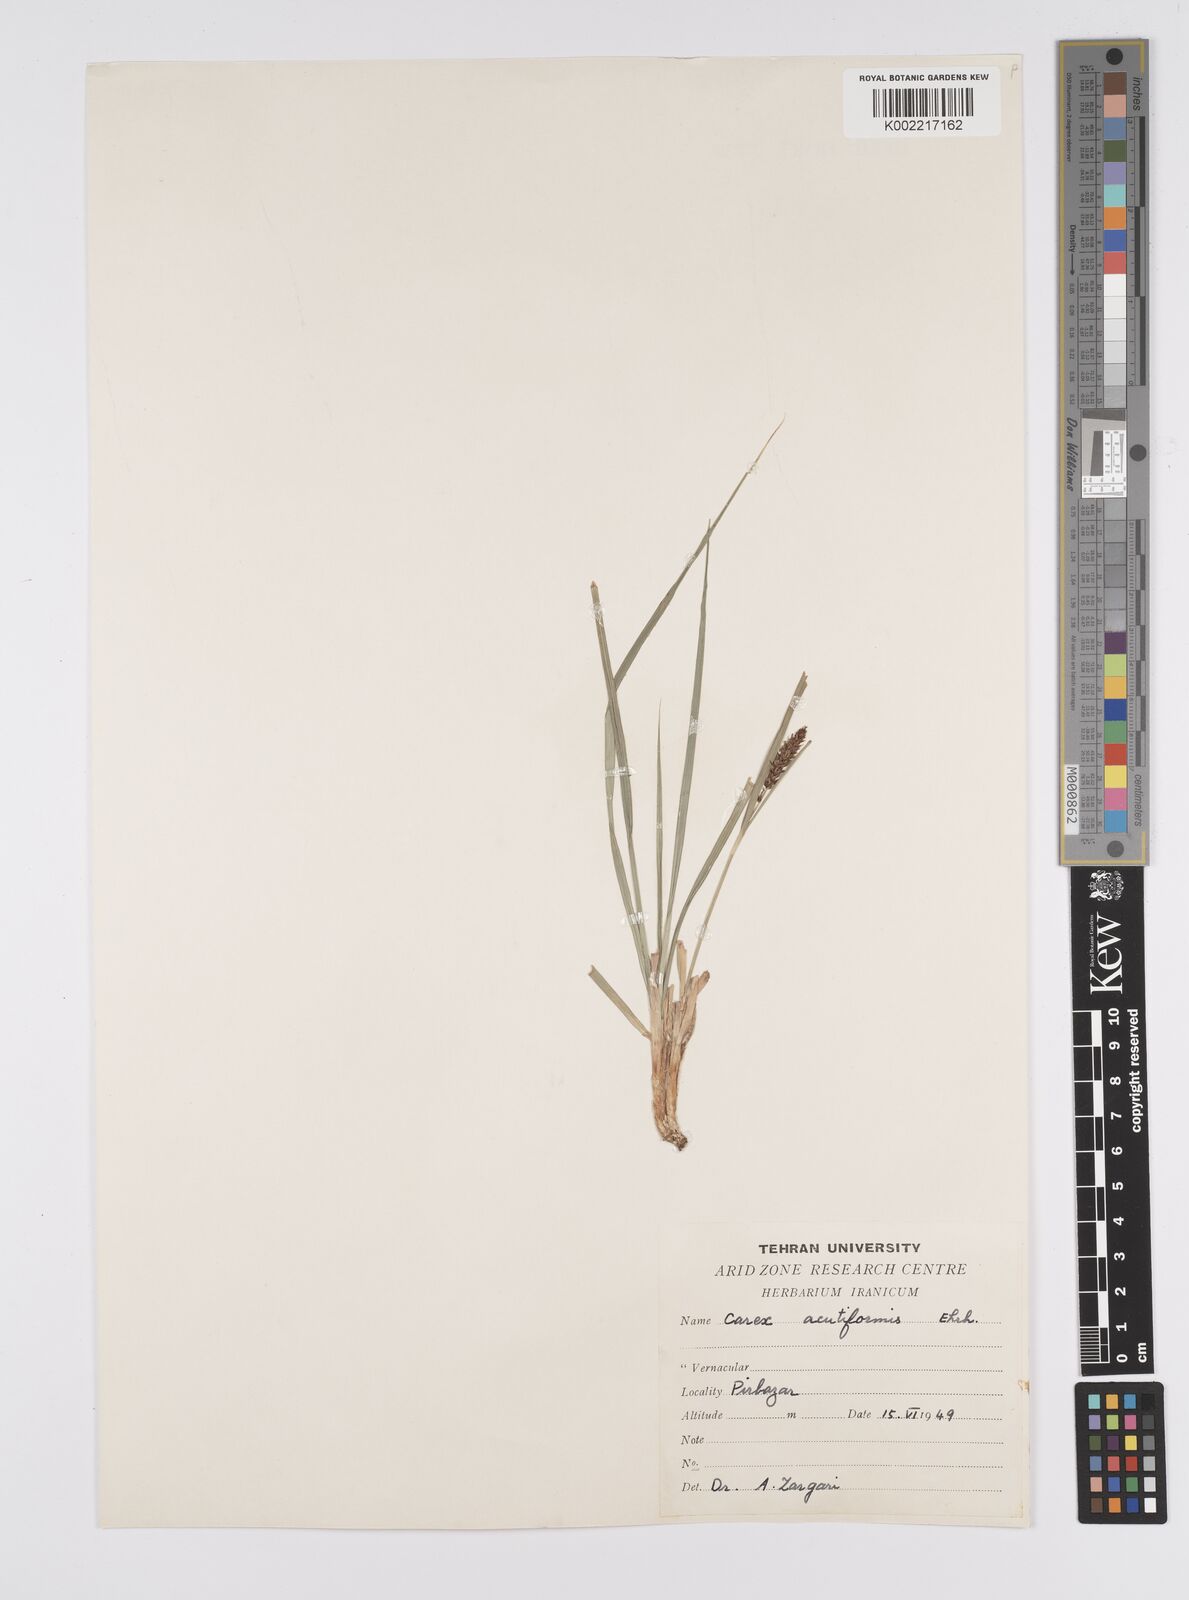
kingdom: Plantae
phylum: Tracheophyta
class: Liliopsida
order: Poales
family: Cyperaceae
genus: Carex
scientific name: Carex acutiformis
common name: Lesser pond-sedge
